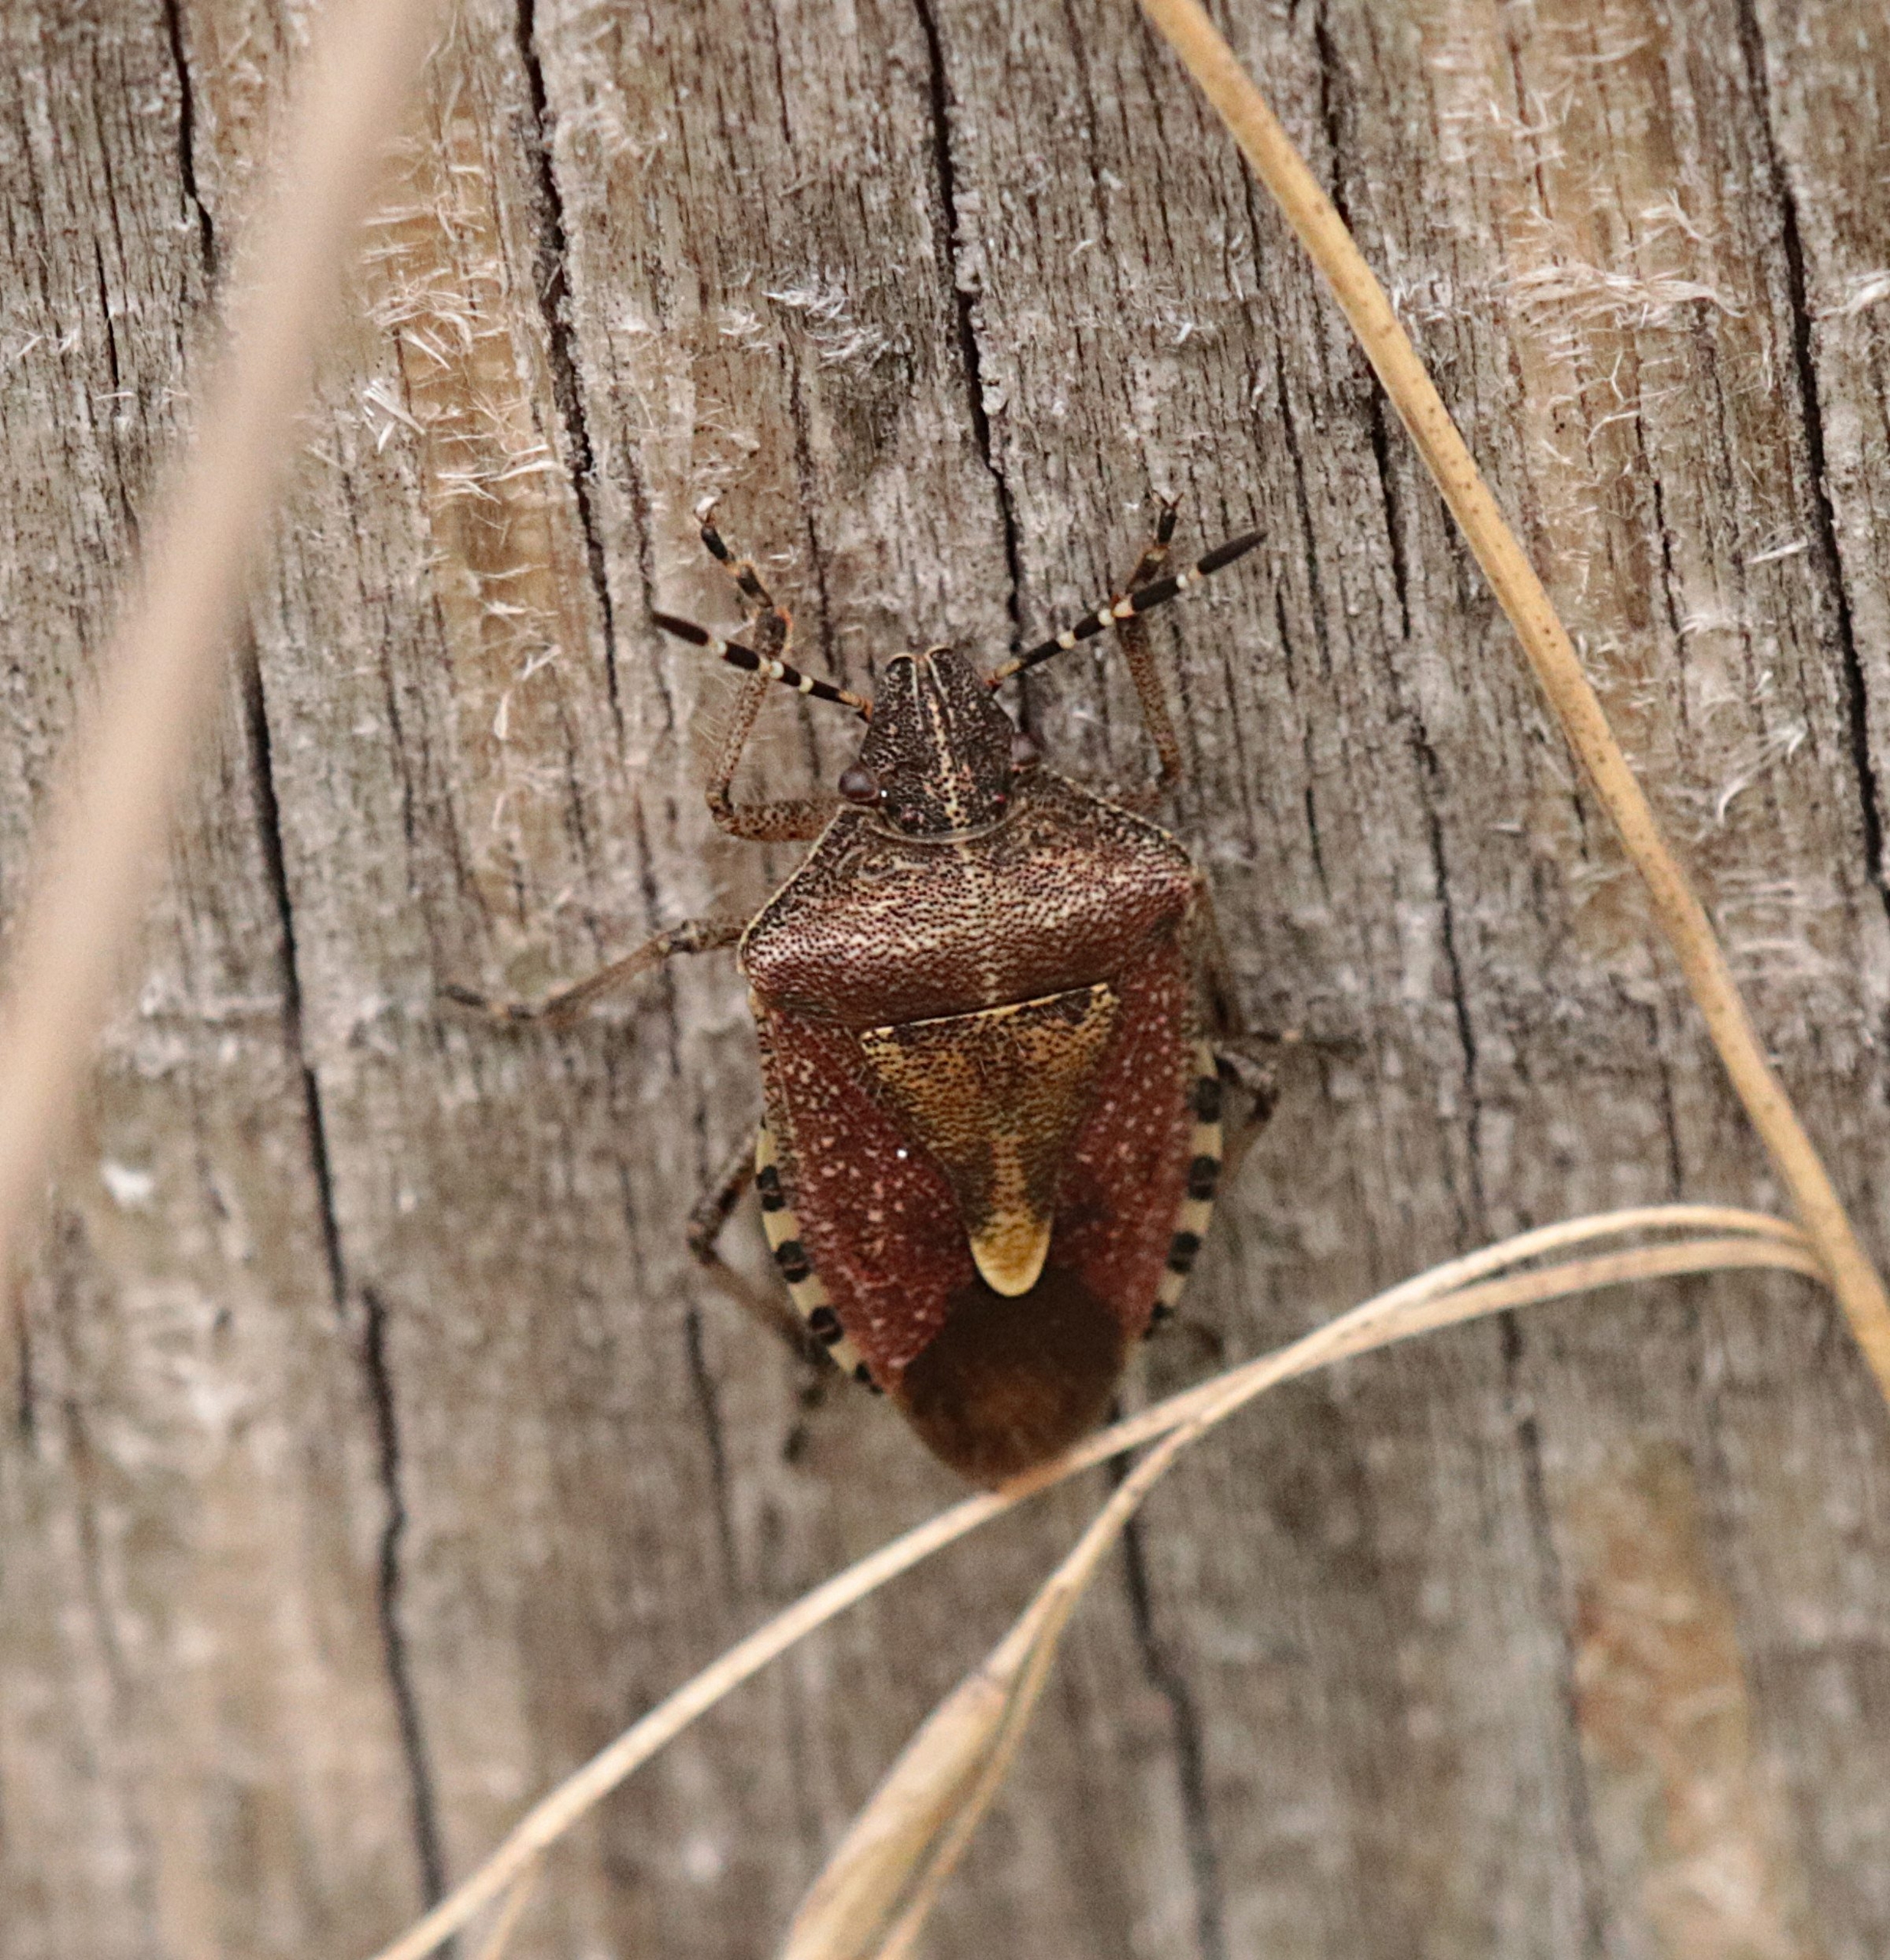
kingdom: Animalia
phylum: Arthropoda
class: Insecta
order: Hemiptera
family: Pentatomidae
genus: Dolycoris
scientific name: Dolycoris baccarum
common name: Almindelig bærtæge
